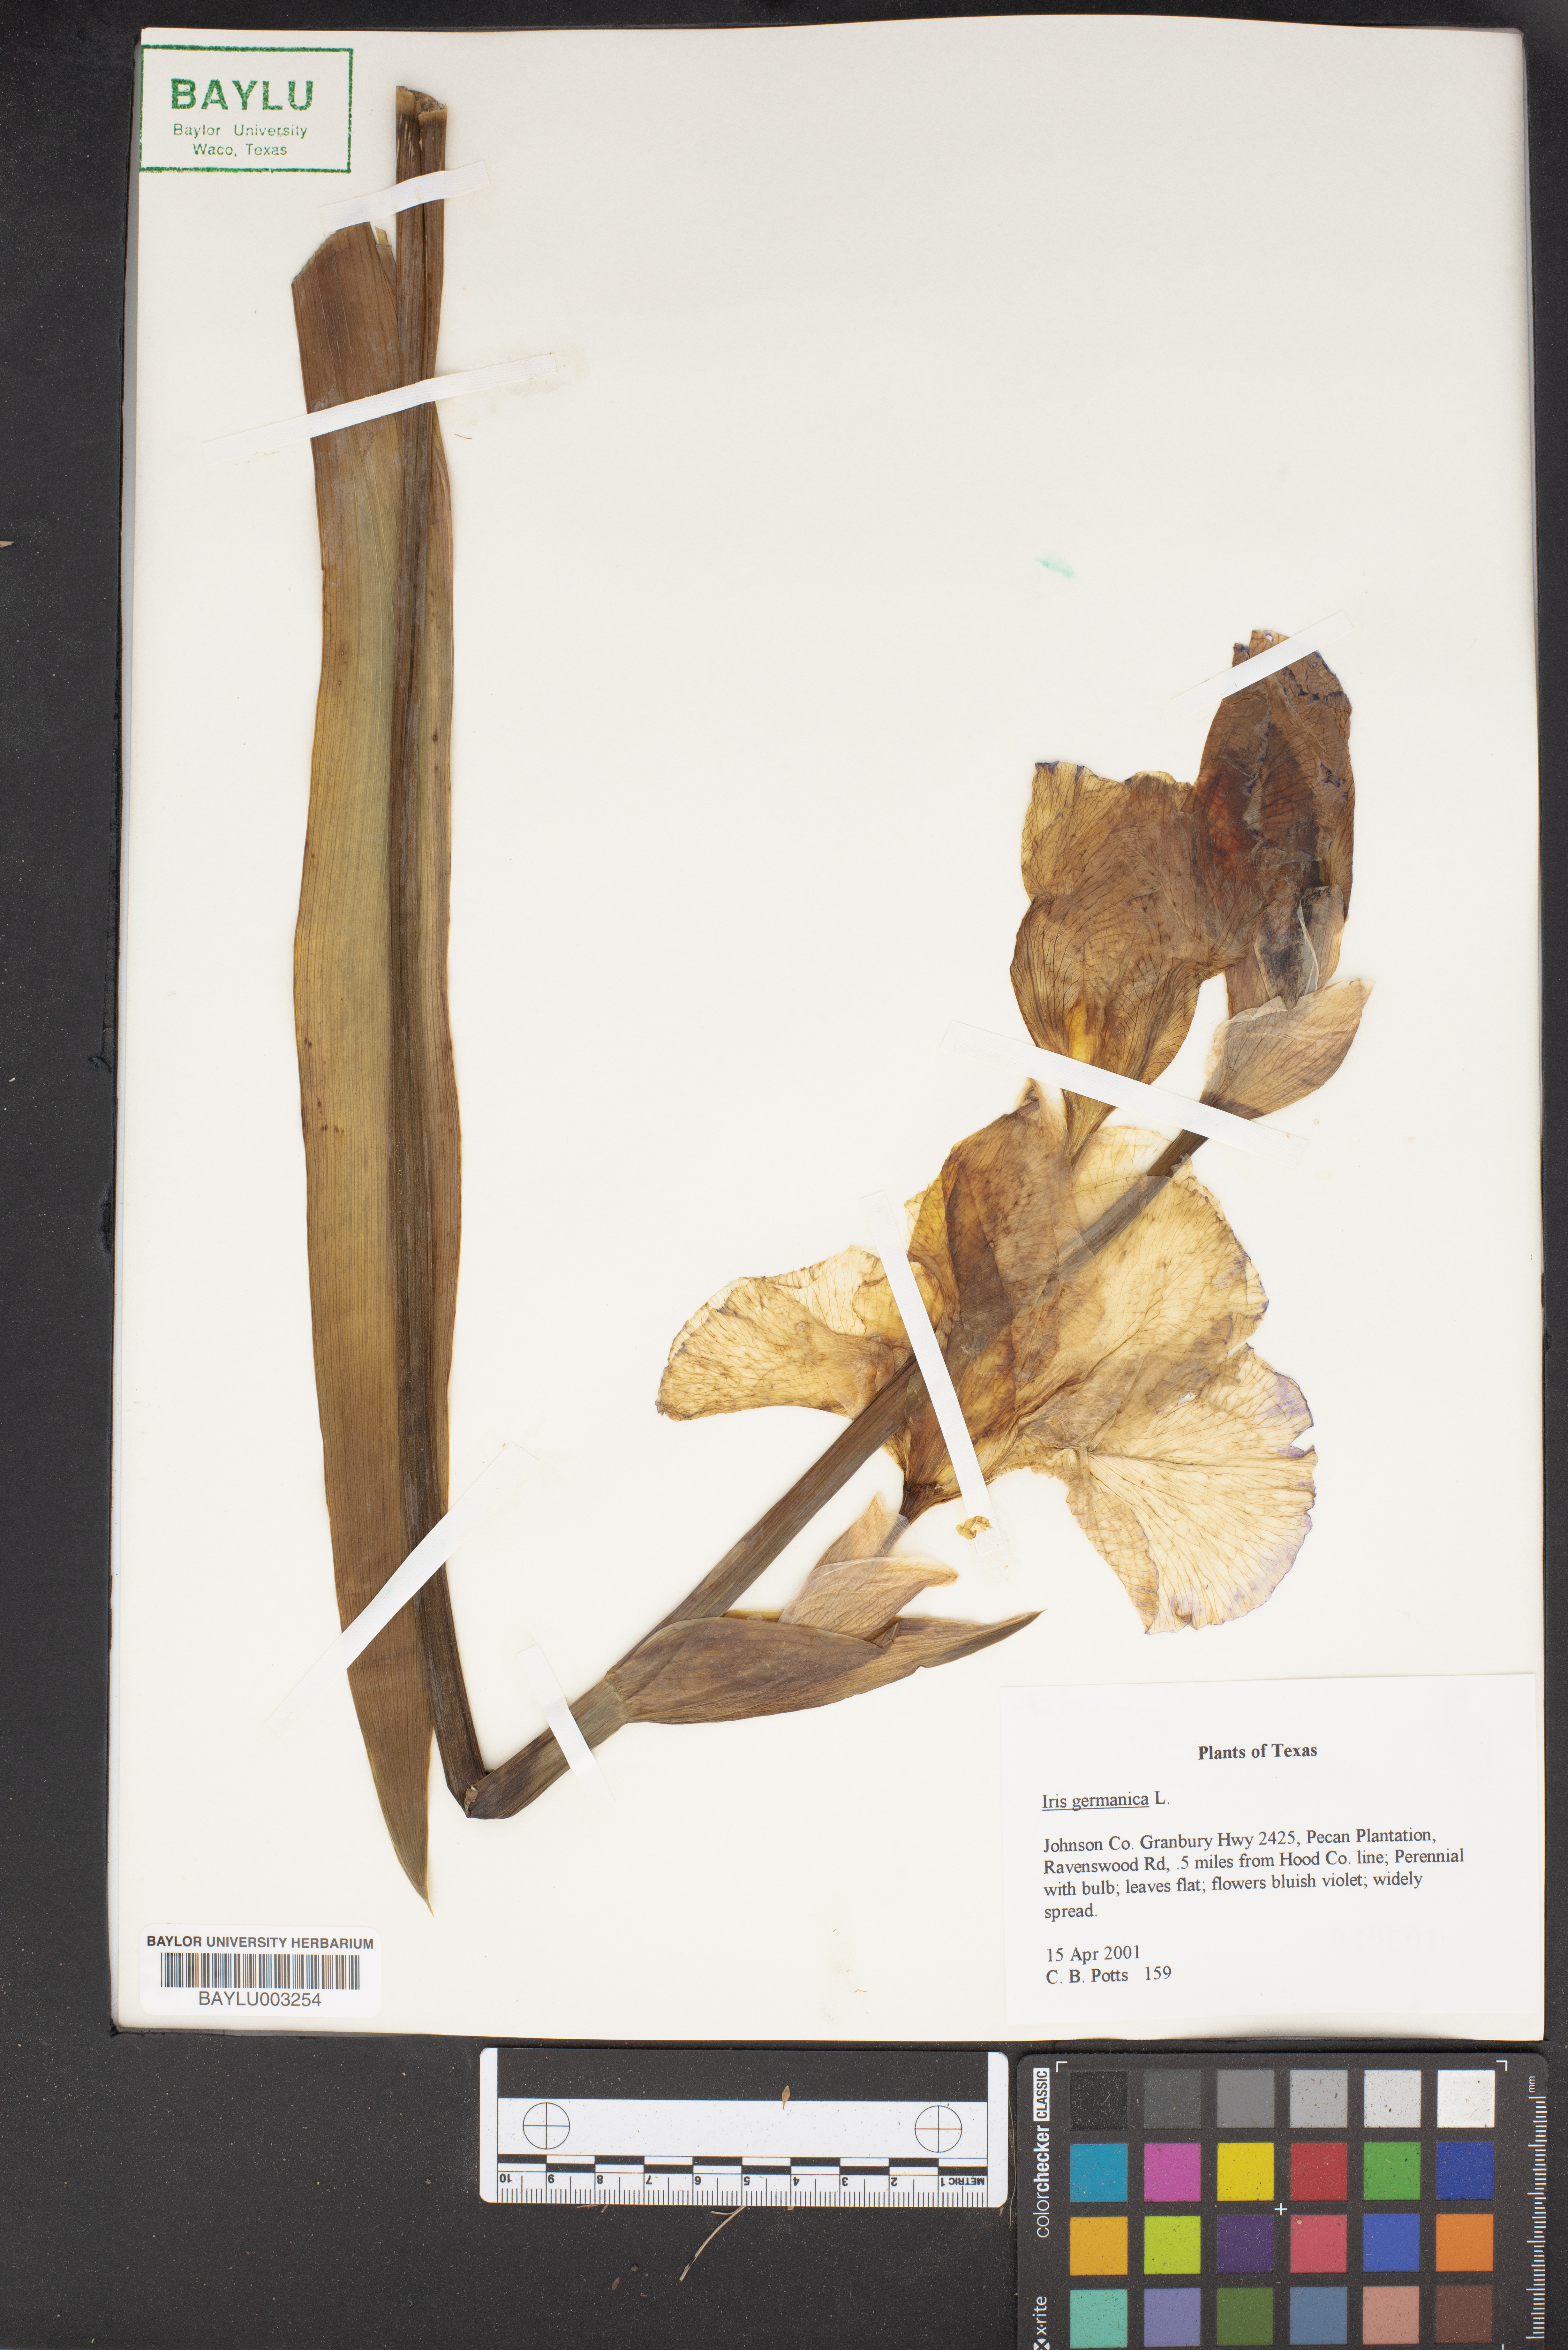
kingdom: Plantae
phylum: Tracheophyta
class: Liliopsida
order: Asparagales
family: Iridaceae
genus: Iris
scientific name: Iris germanica
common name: German iris
